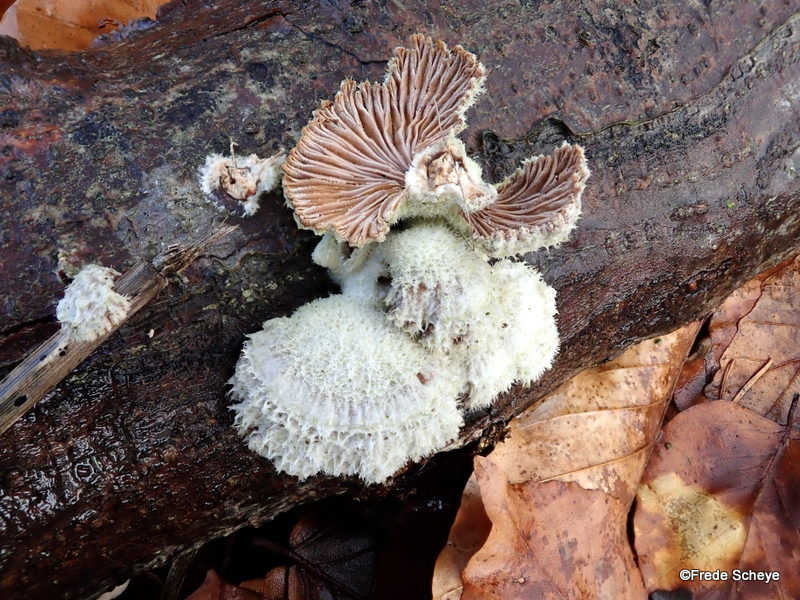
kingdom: Fungi
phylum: Basidiomycota
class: Agaricomycetes
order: Agaricales
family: Schizophyllaceae
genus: Schizophyllum
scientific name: Schizophyllum commune
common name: kløvblad
